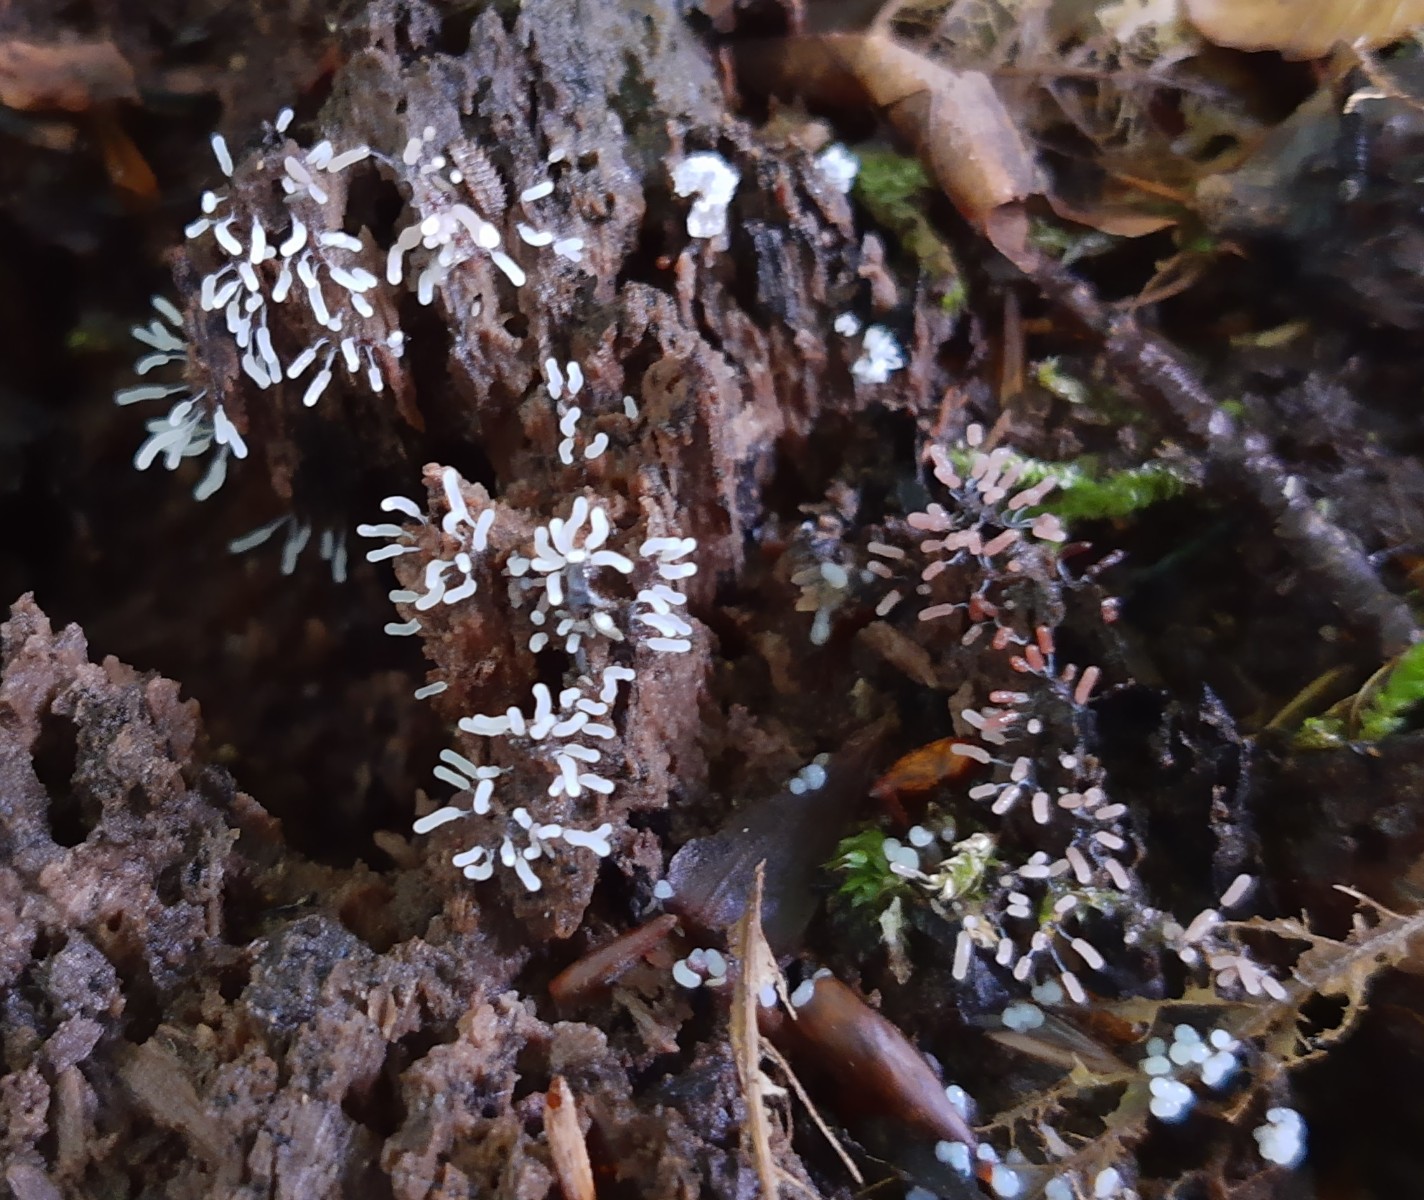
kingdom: Protozoa
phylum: Mycetozoa
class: Myxomycetes
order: Stemonitidales
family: Stemonitidaceae
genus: Stemonitopsis
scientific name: Stemonitopsis typhina
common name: skinnende støvkølle
